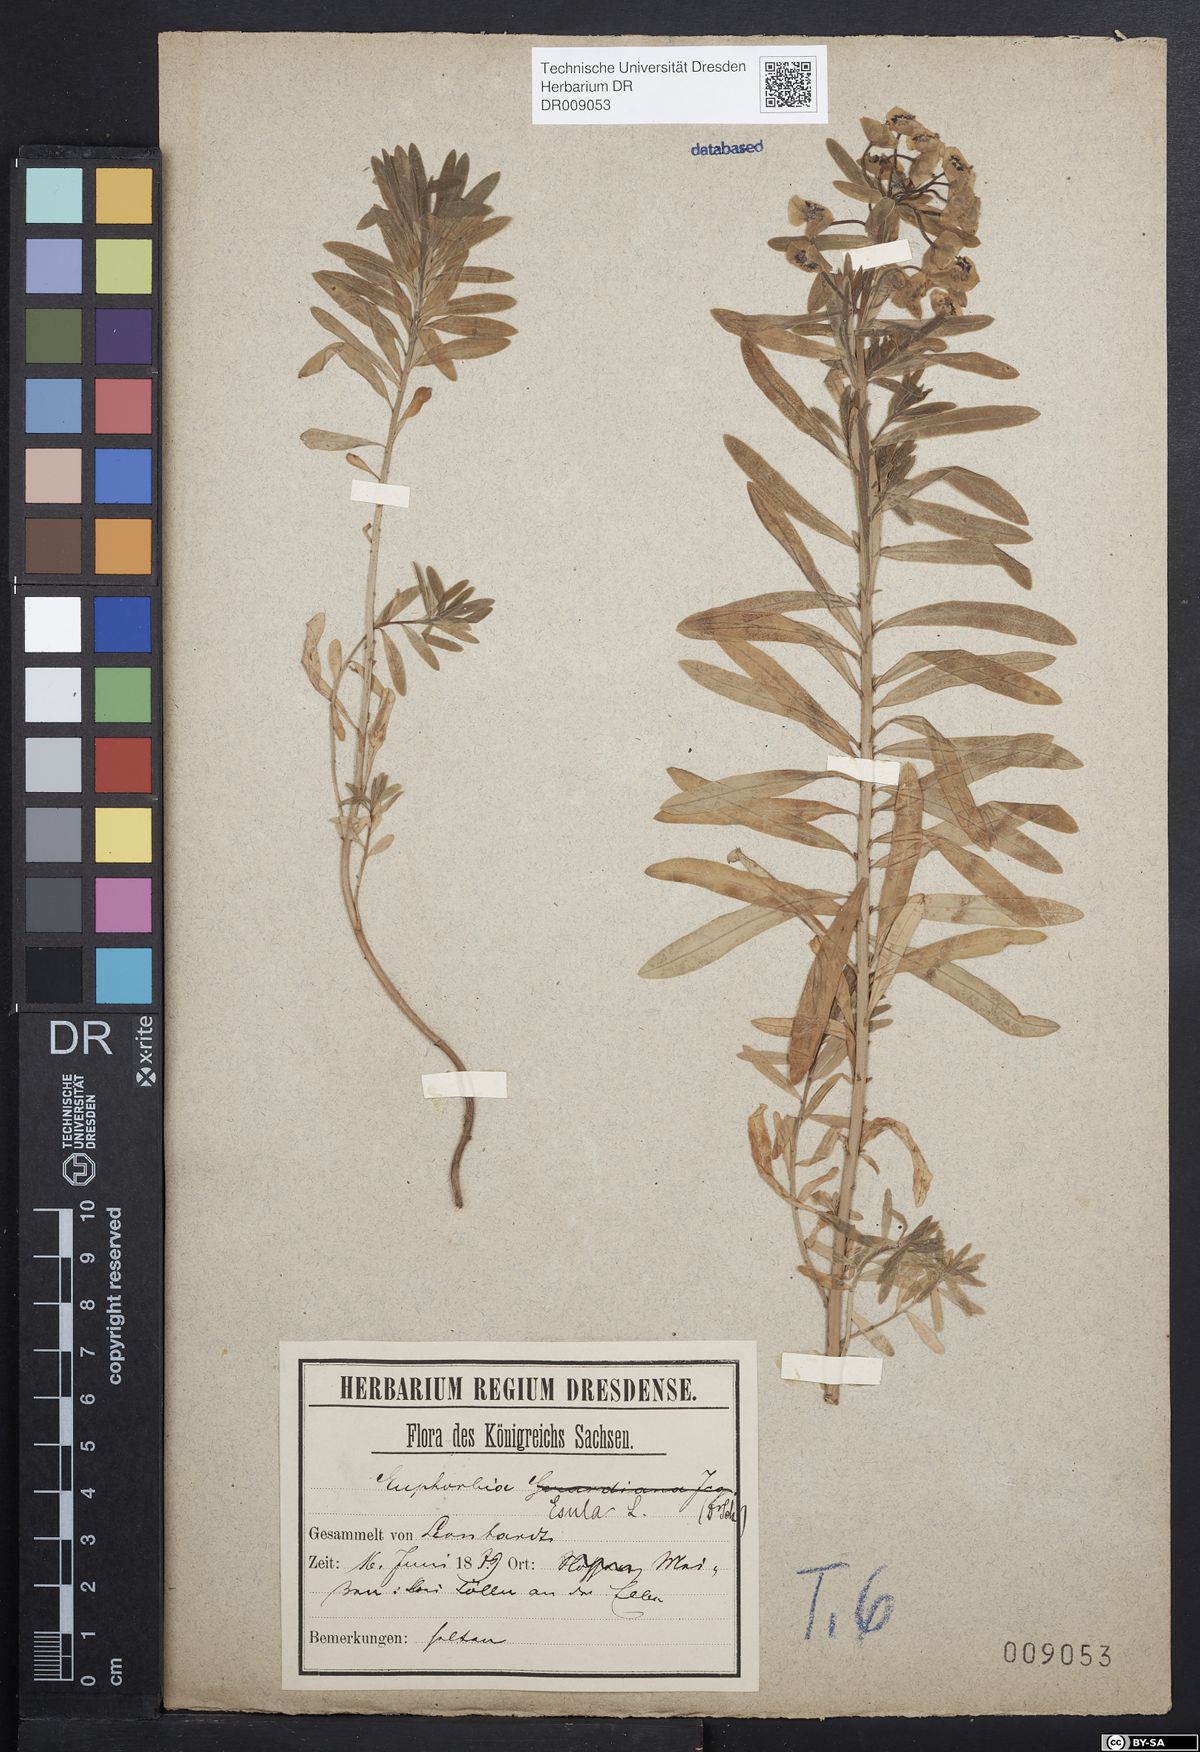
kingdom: Plantae
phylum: Tracheophyta
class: Magnoliopsida
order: Malpighiales
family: Euphorbiaceae
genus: Euphorbia
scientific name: Euphorbia esula
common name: Leafy spurge
